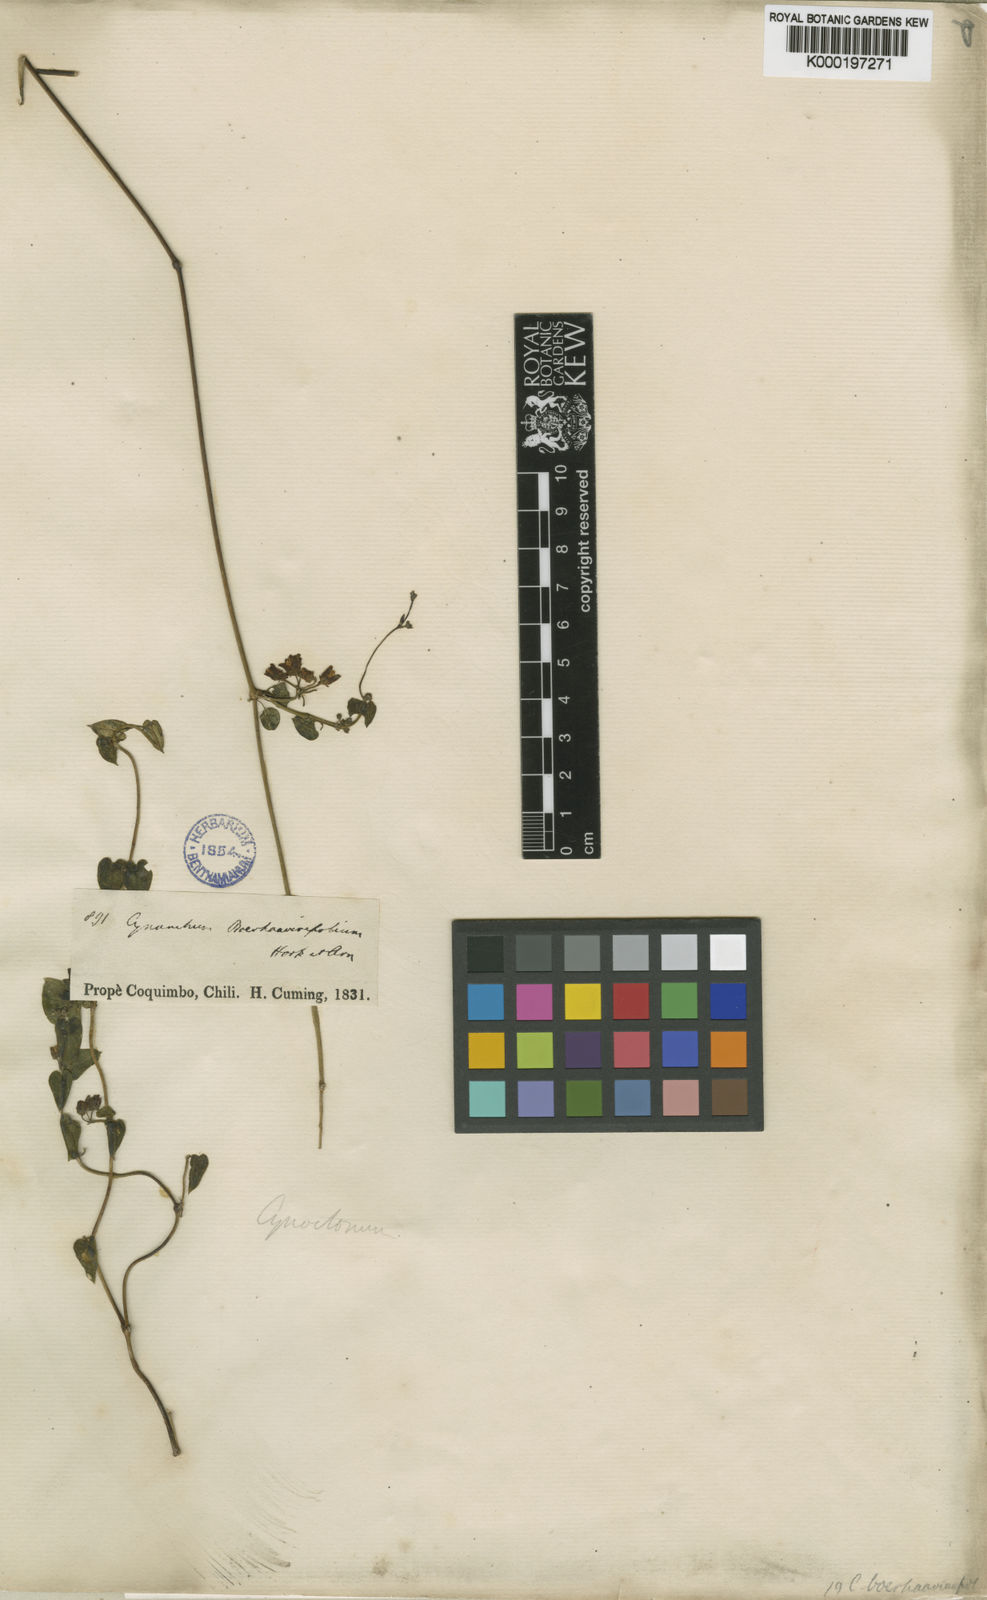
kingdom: Plantae
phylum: Tracheophyta
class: Magnoliopsida
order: Gentianales
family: Apocynaceae
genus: Diplolepis
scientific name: Diplolepis boerhaviifolia
